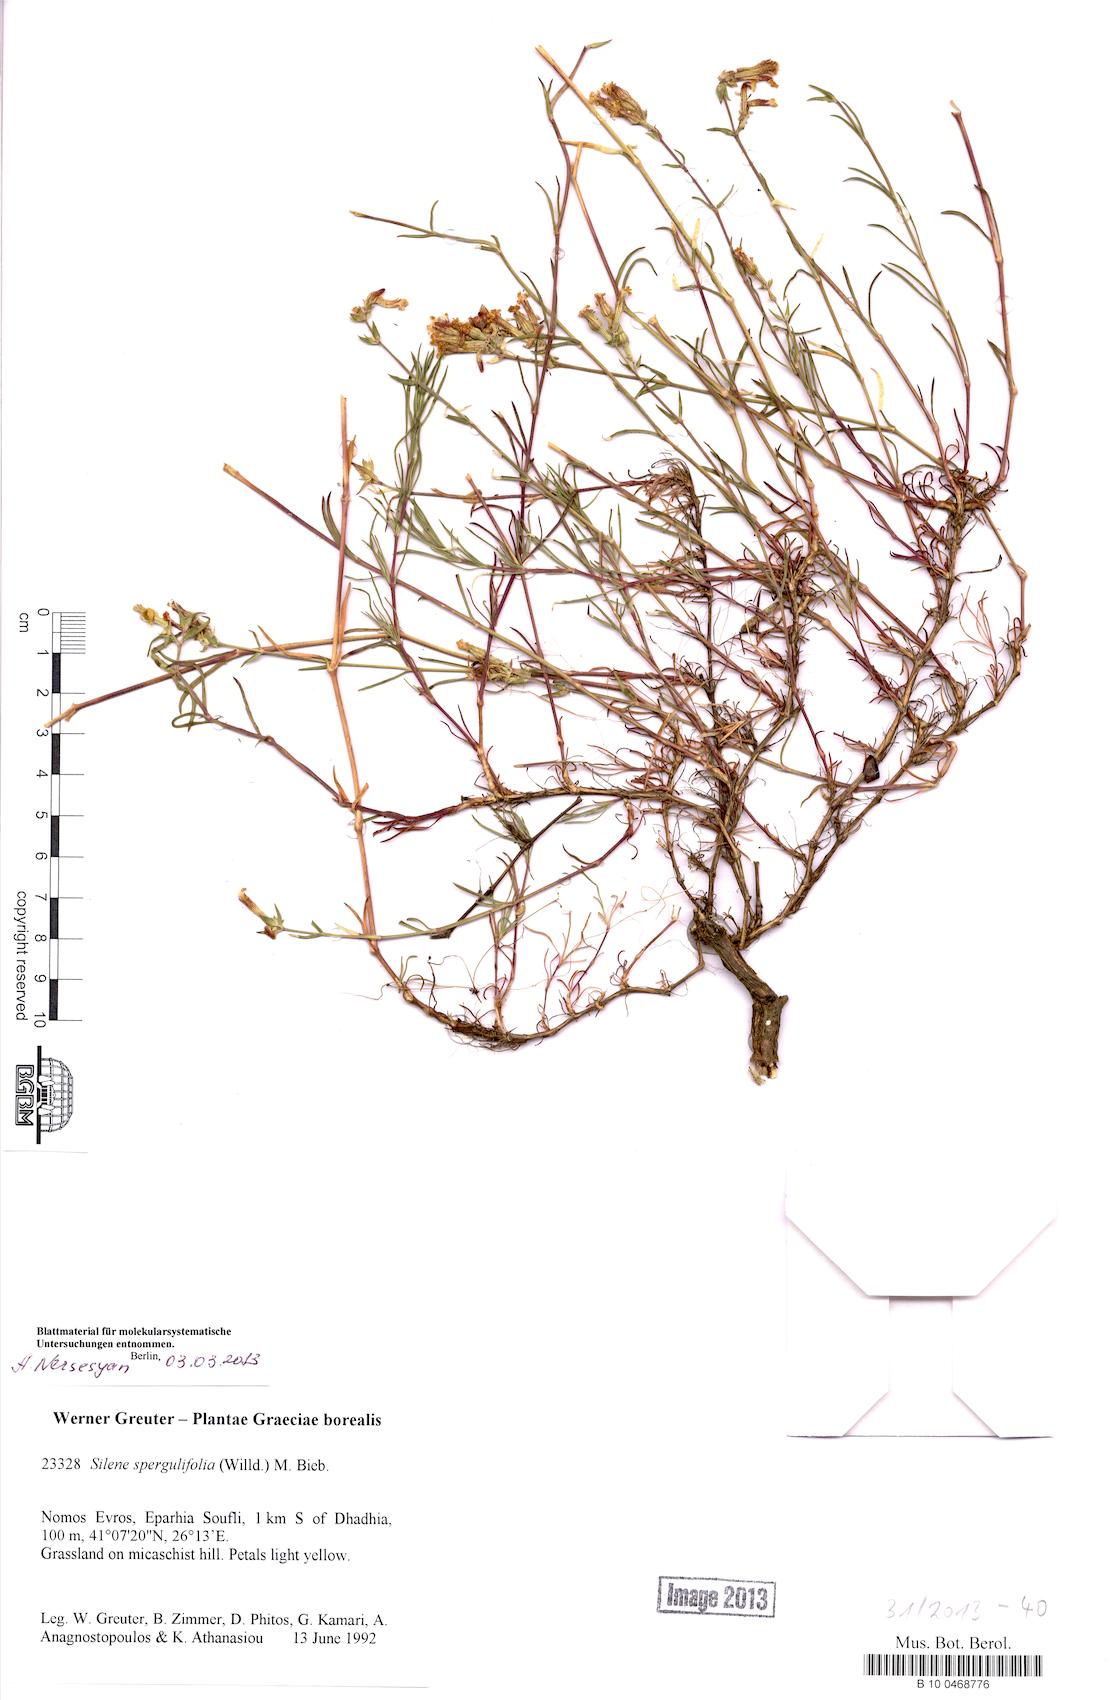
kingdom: Plantae
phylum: Tracheophyta
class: Magnoliopsida
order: Caryophyllales
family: Caryophyllaceae
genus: Silene
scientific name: Silene spergulifolia
